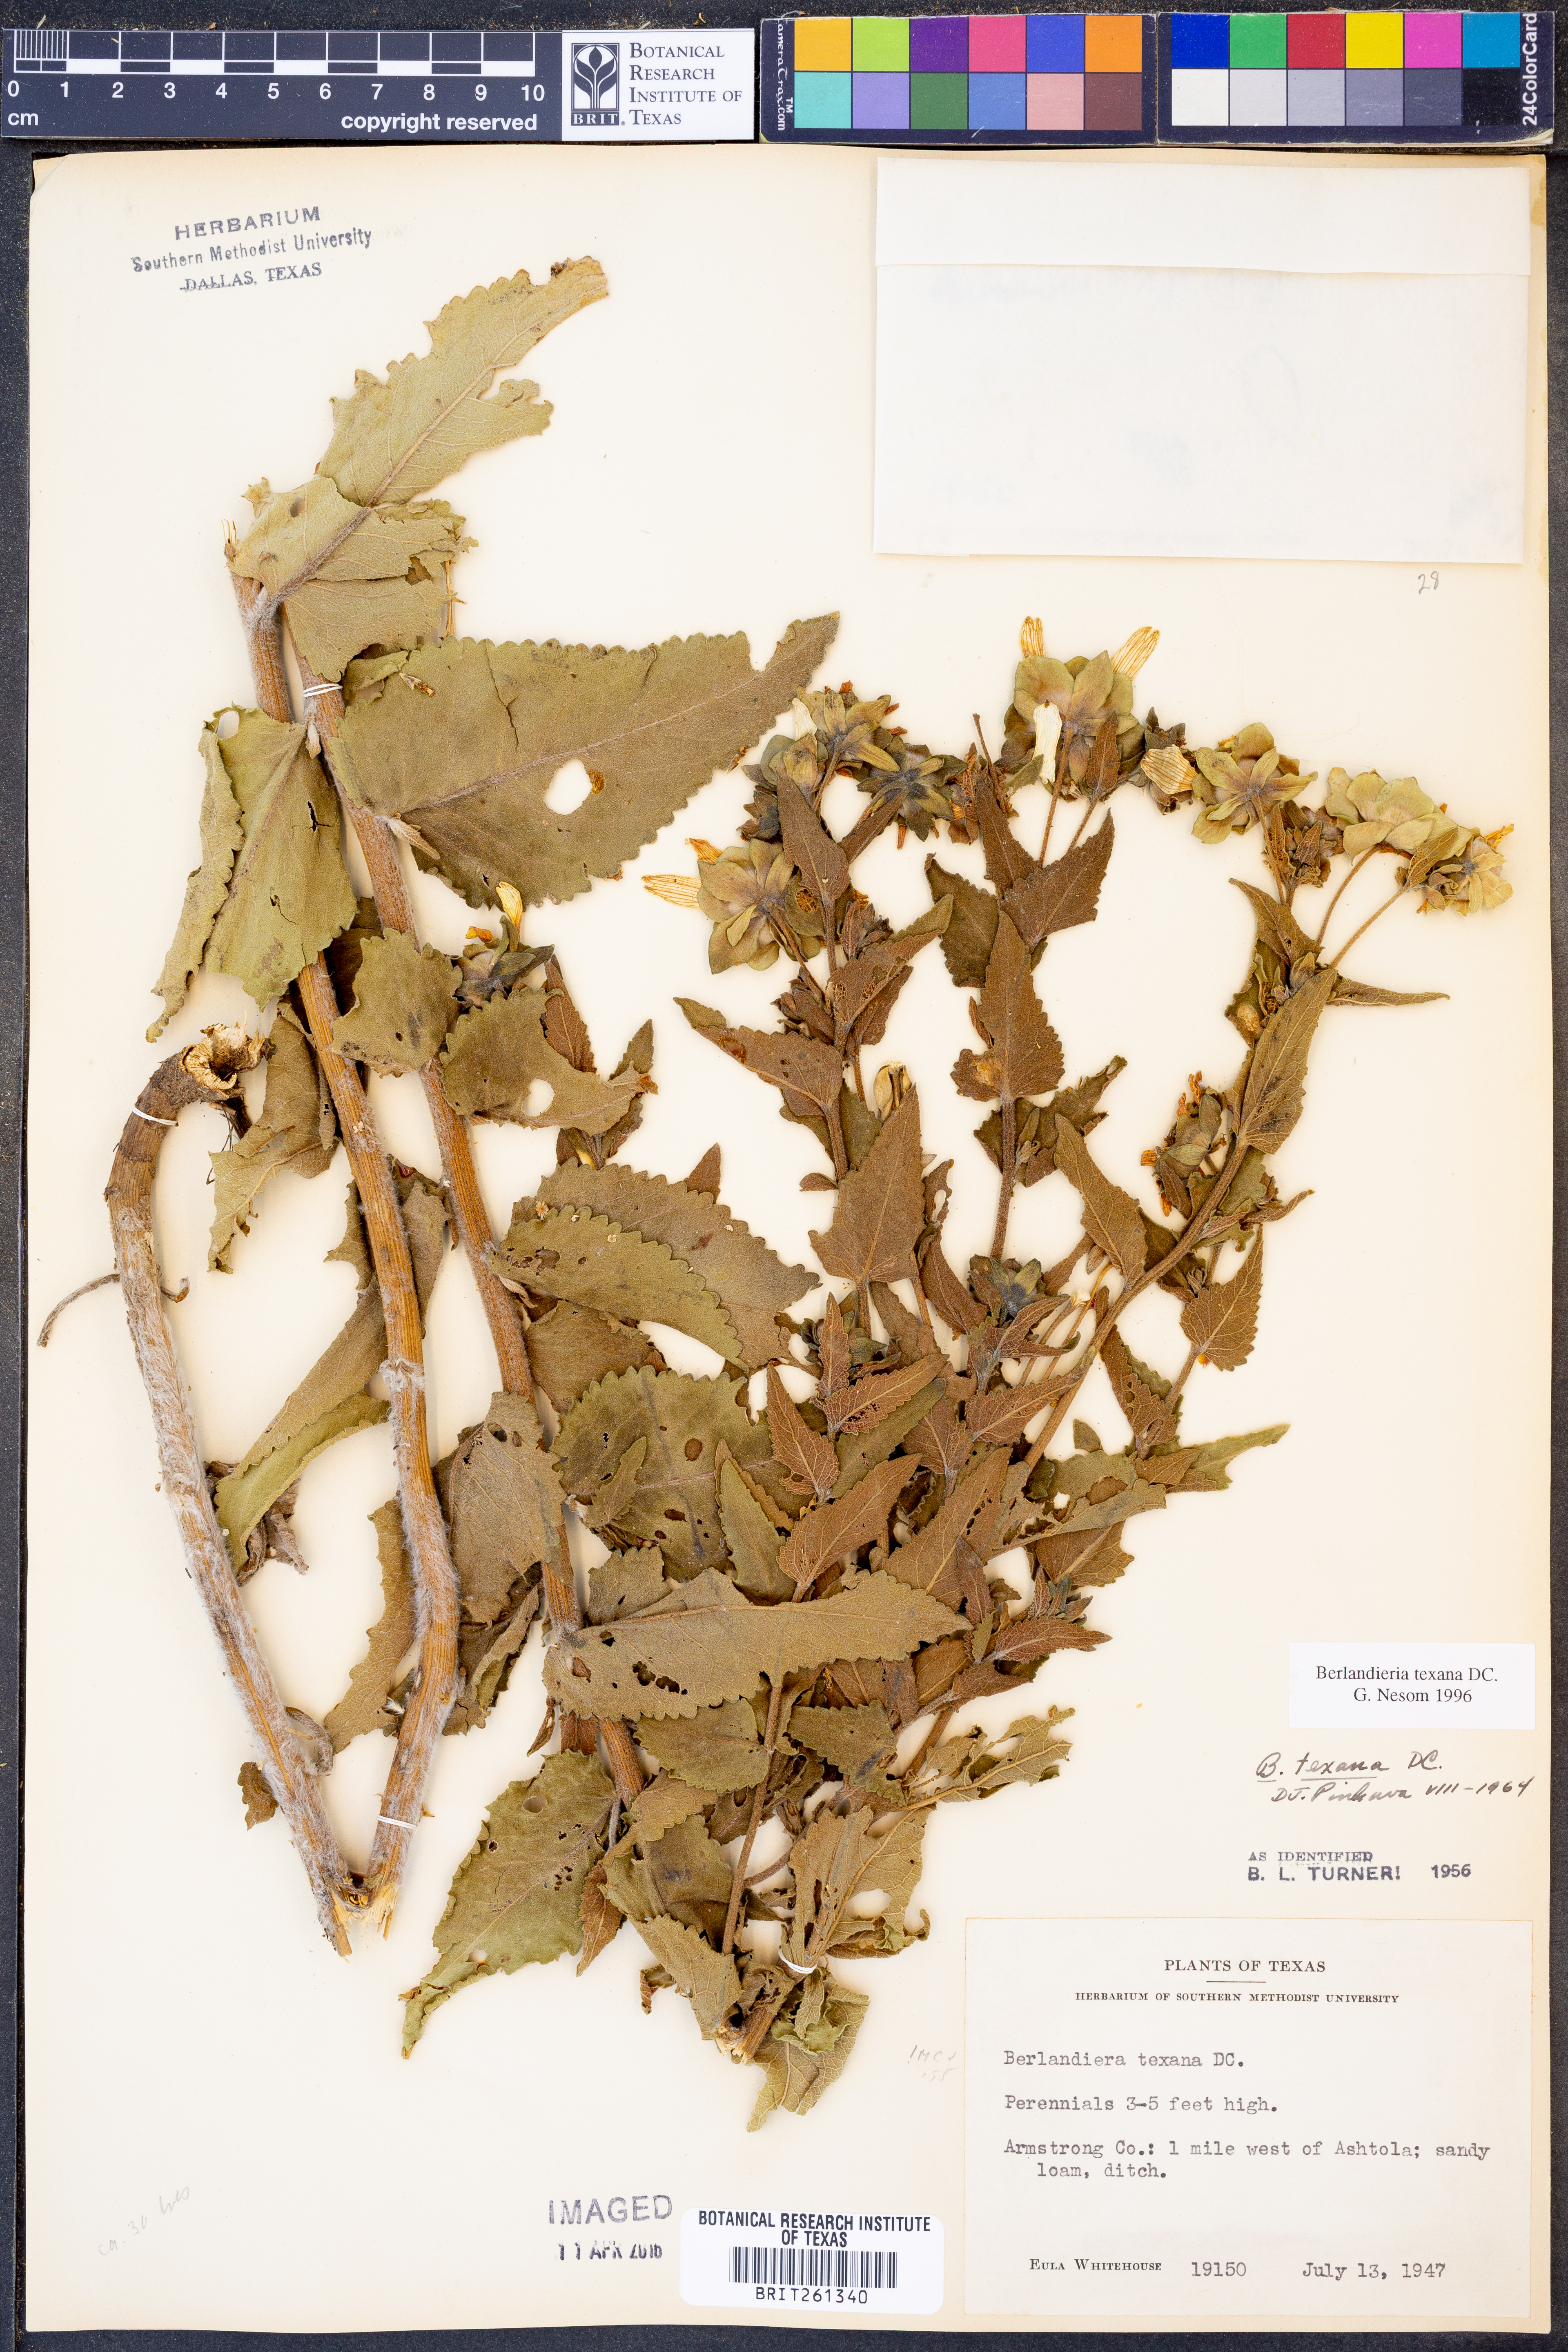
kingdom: Plantae
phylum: Tracheophyta
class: Magnoliopsida
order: Asterales
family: Asteraceae
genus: Berlandiera
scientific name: Berlandiera texana
